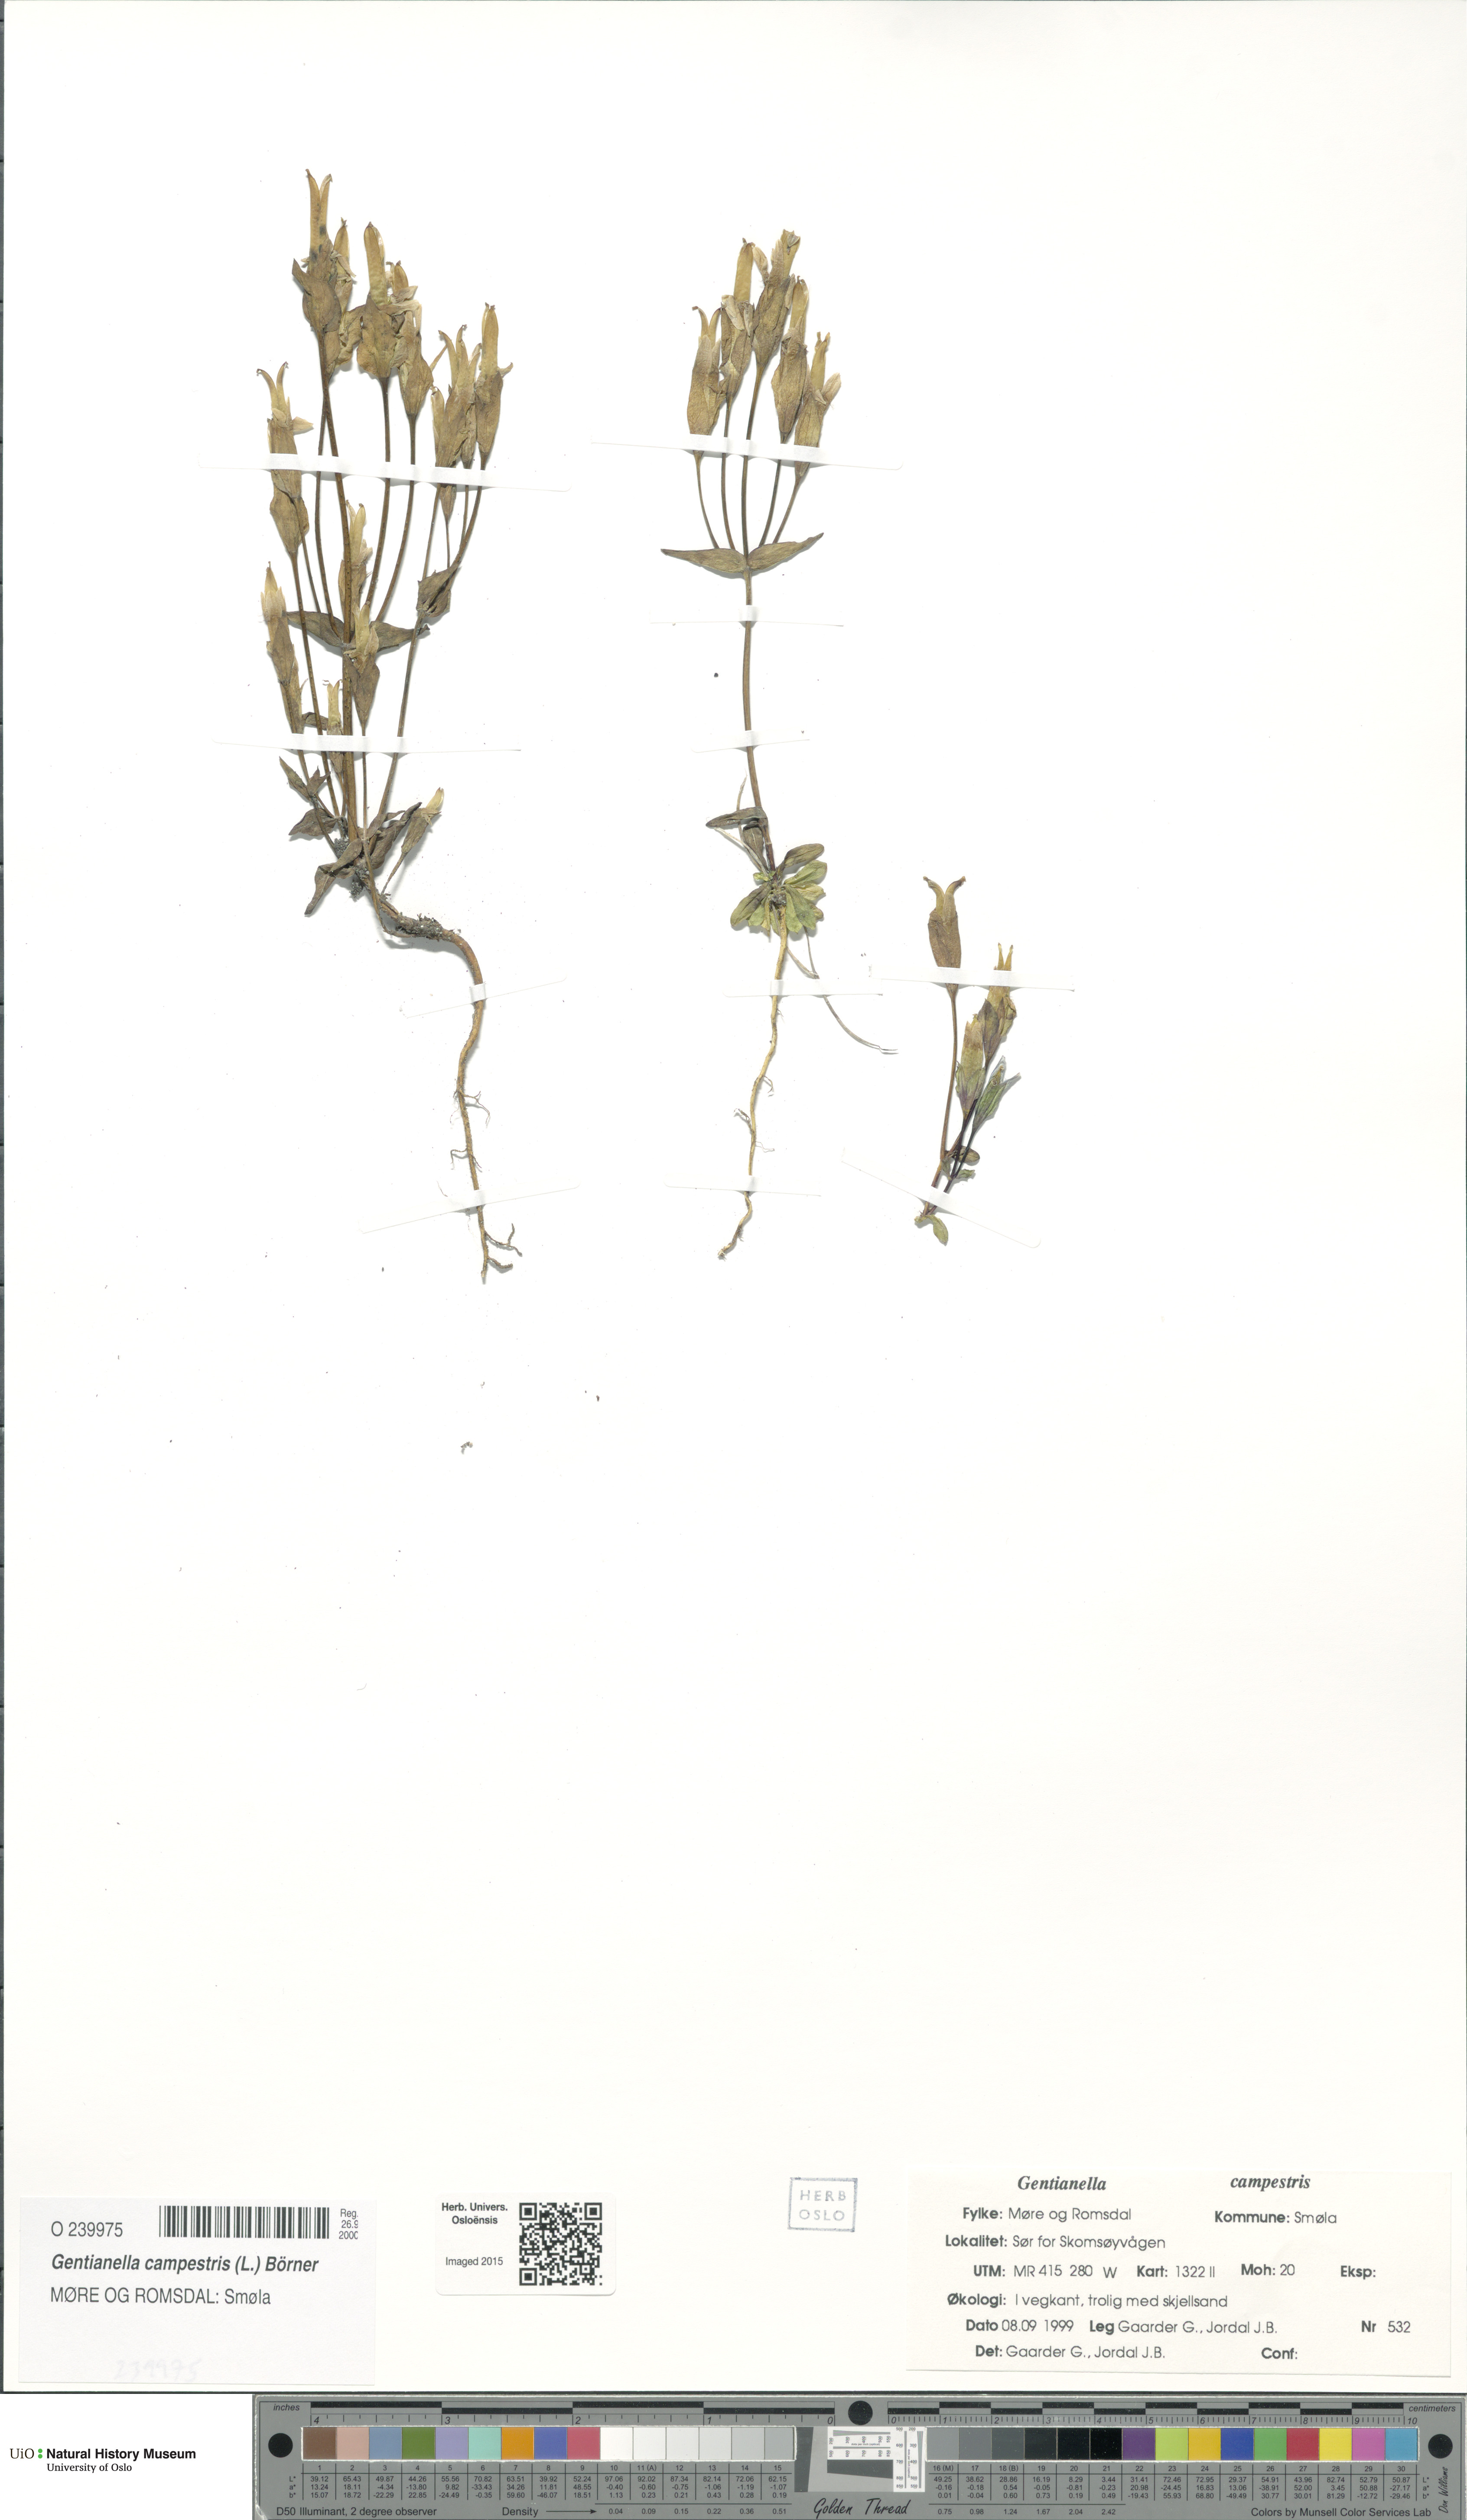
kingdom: Plantae
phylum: Tracheophyta
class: Magnoliopsida
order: Gentianales
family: Gentianaceae
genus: Gentianella
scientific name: Gentianella campestris
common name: Field gentian
